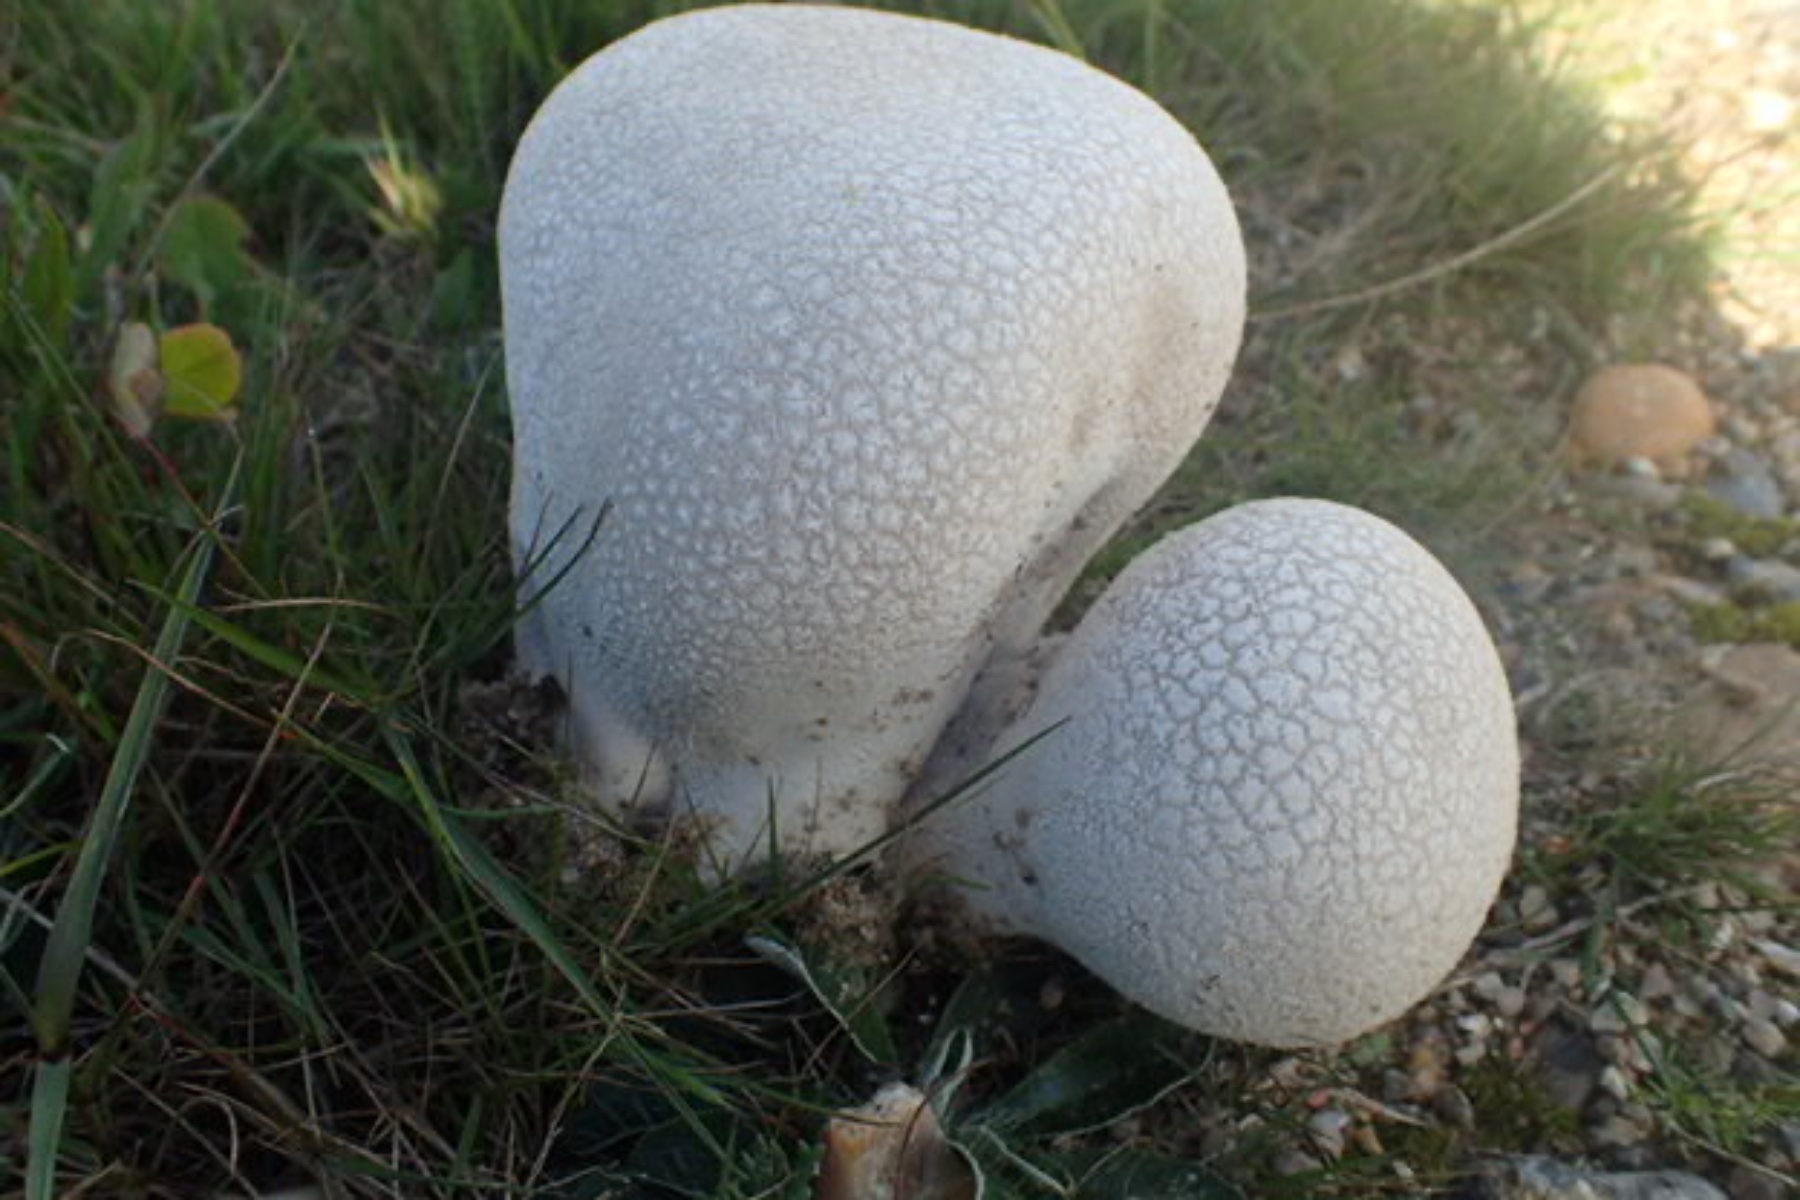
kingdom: Fungi
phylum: Basidiomycota
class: Agaricomycetes
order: Agaricales
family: Lycoperdaceae
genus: Bovistella
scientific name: Bovistella utriformis
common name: skællet støvbold
